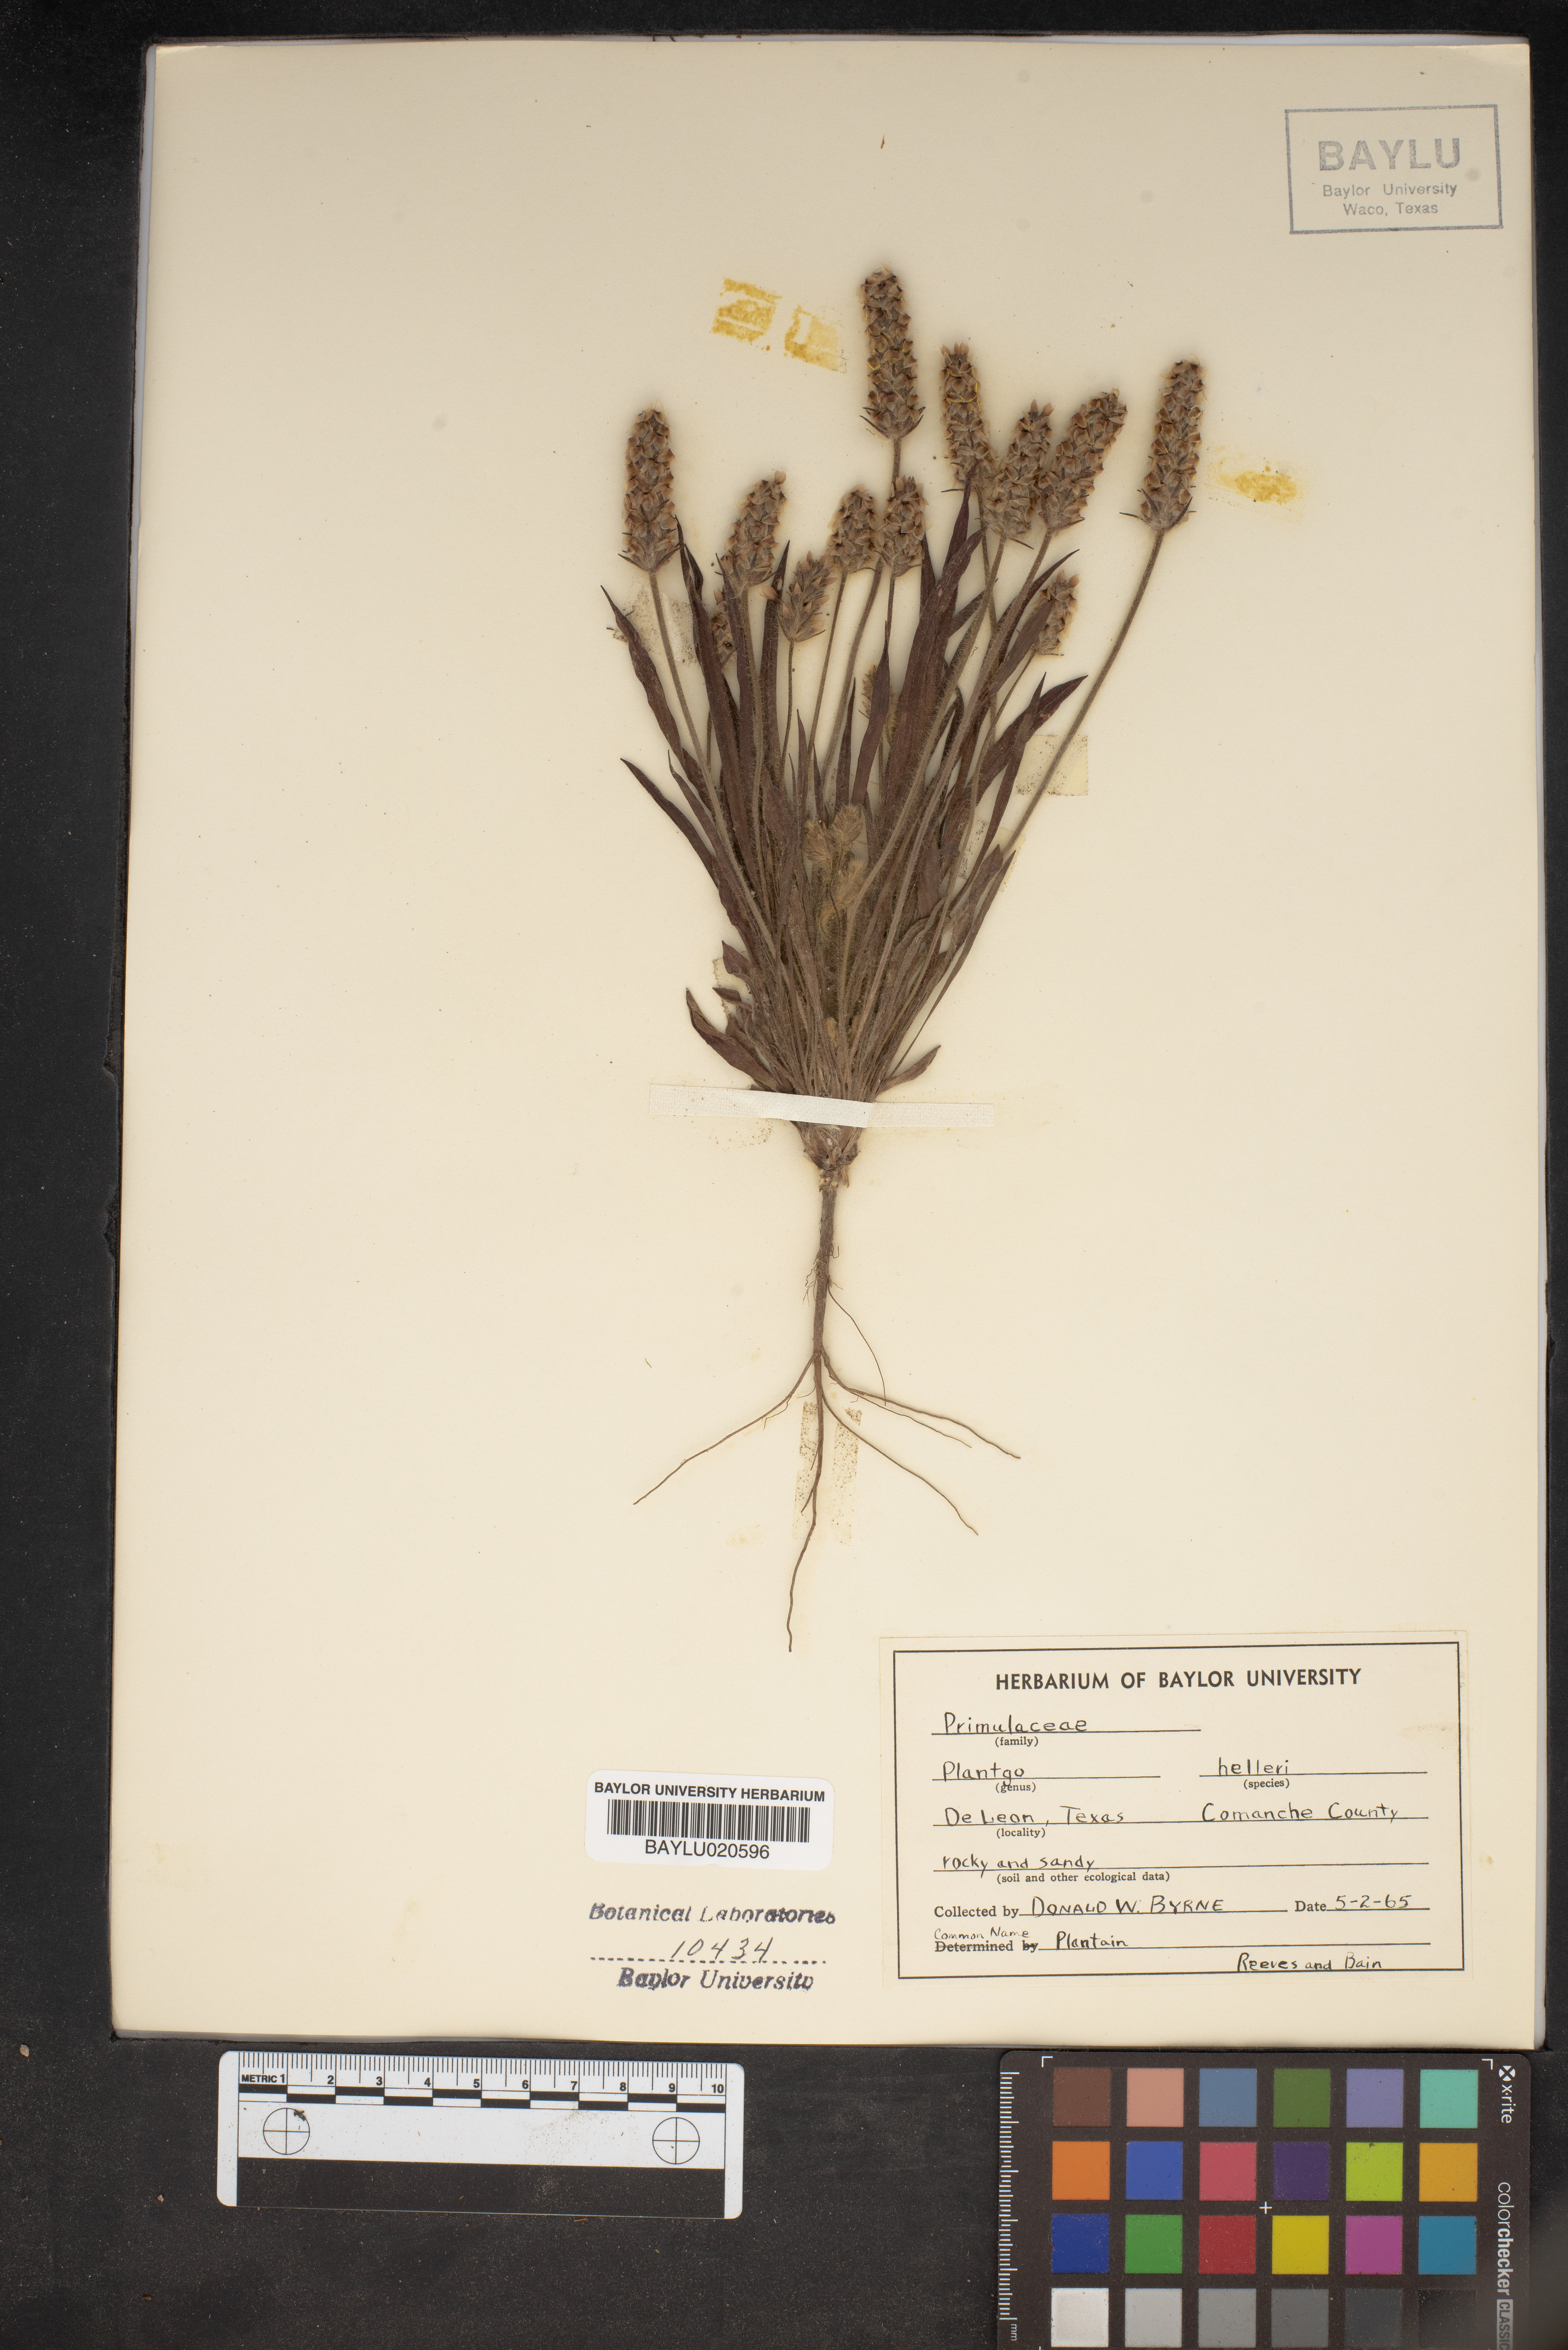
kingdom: Plantae
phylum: Tracheophyta
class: Magnoliopsida
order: Lamiales
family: Plantaginaceae
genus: Plantago
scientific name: Plantago helleri
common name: Heller's plantain
